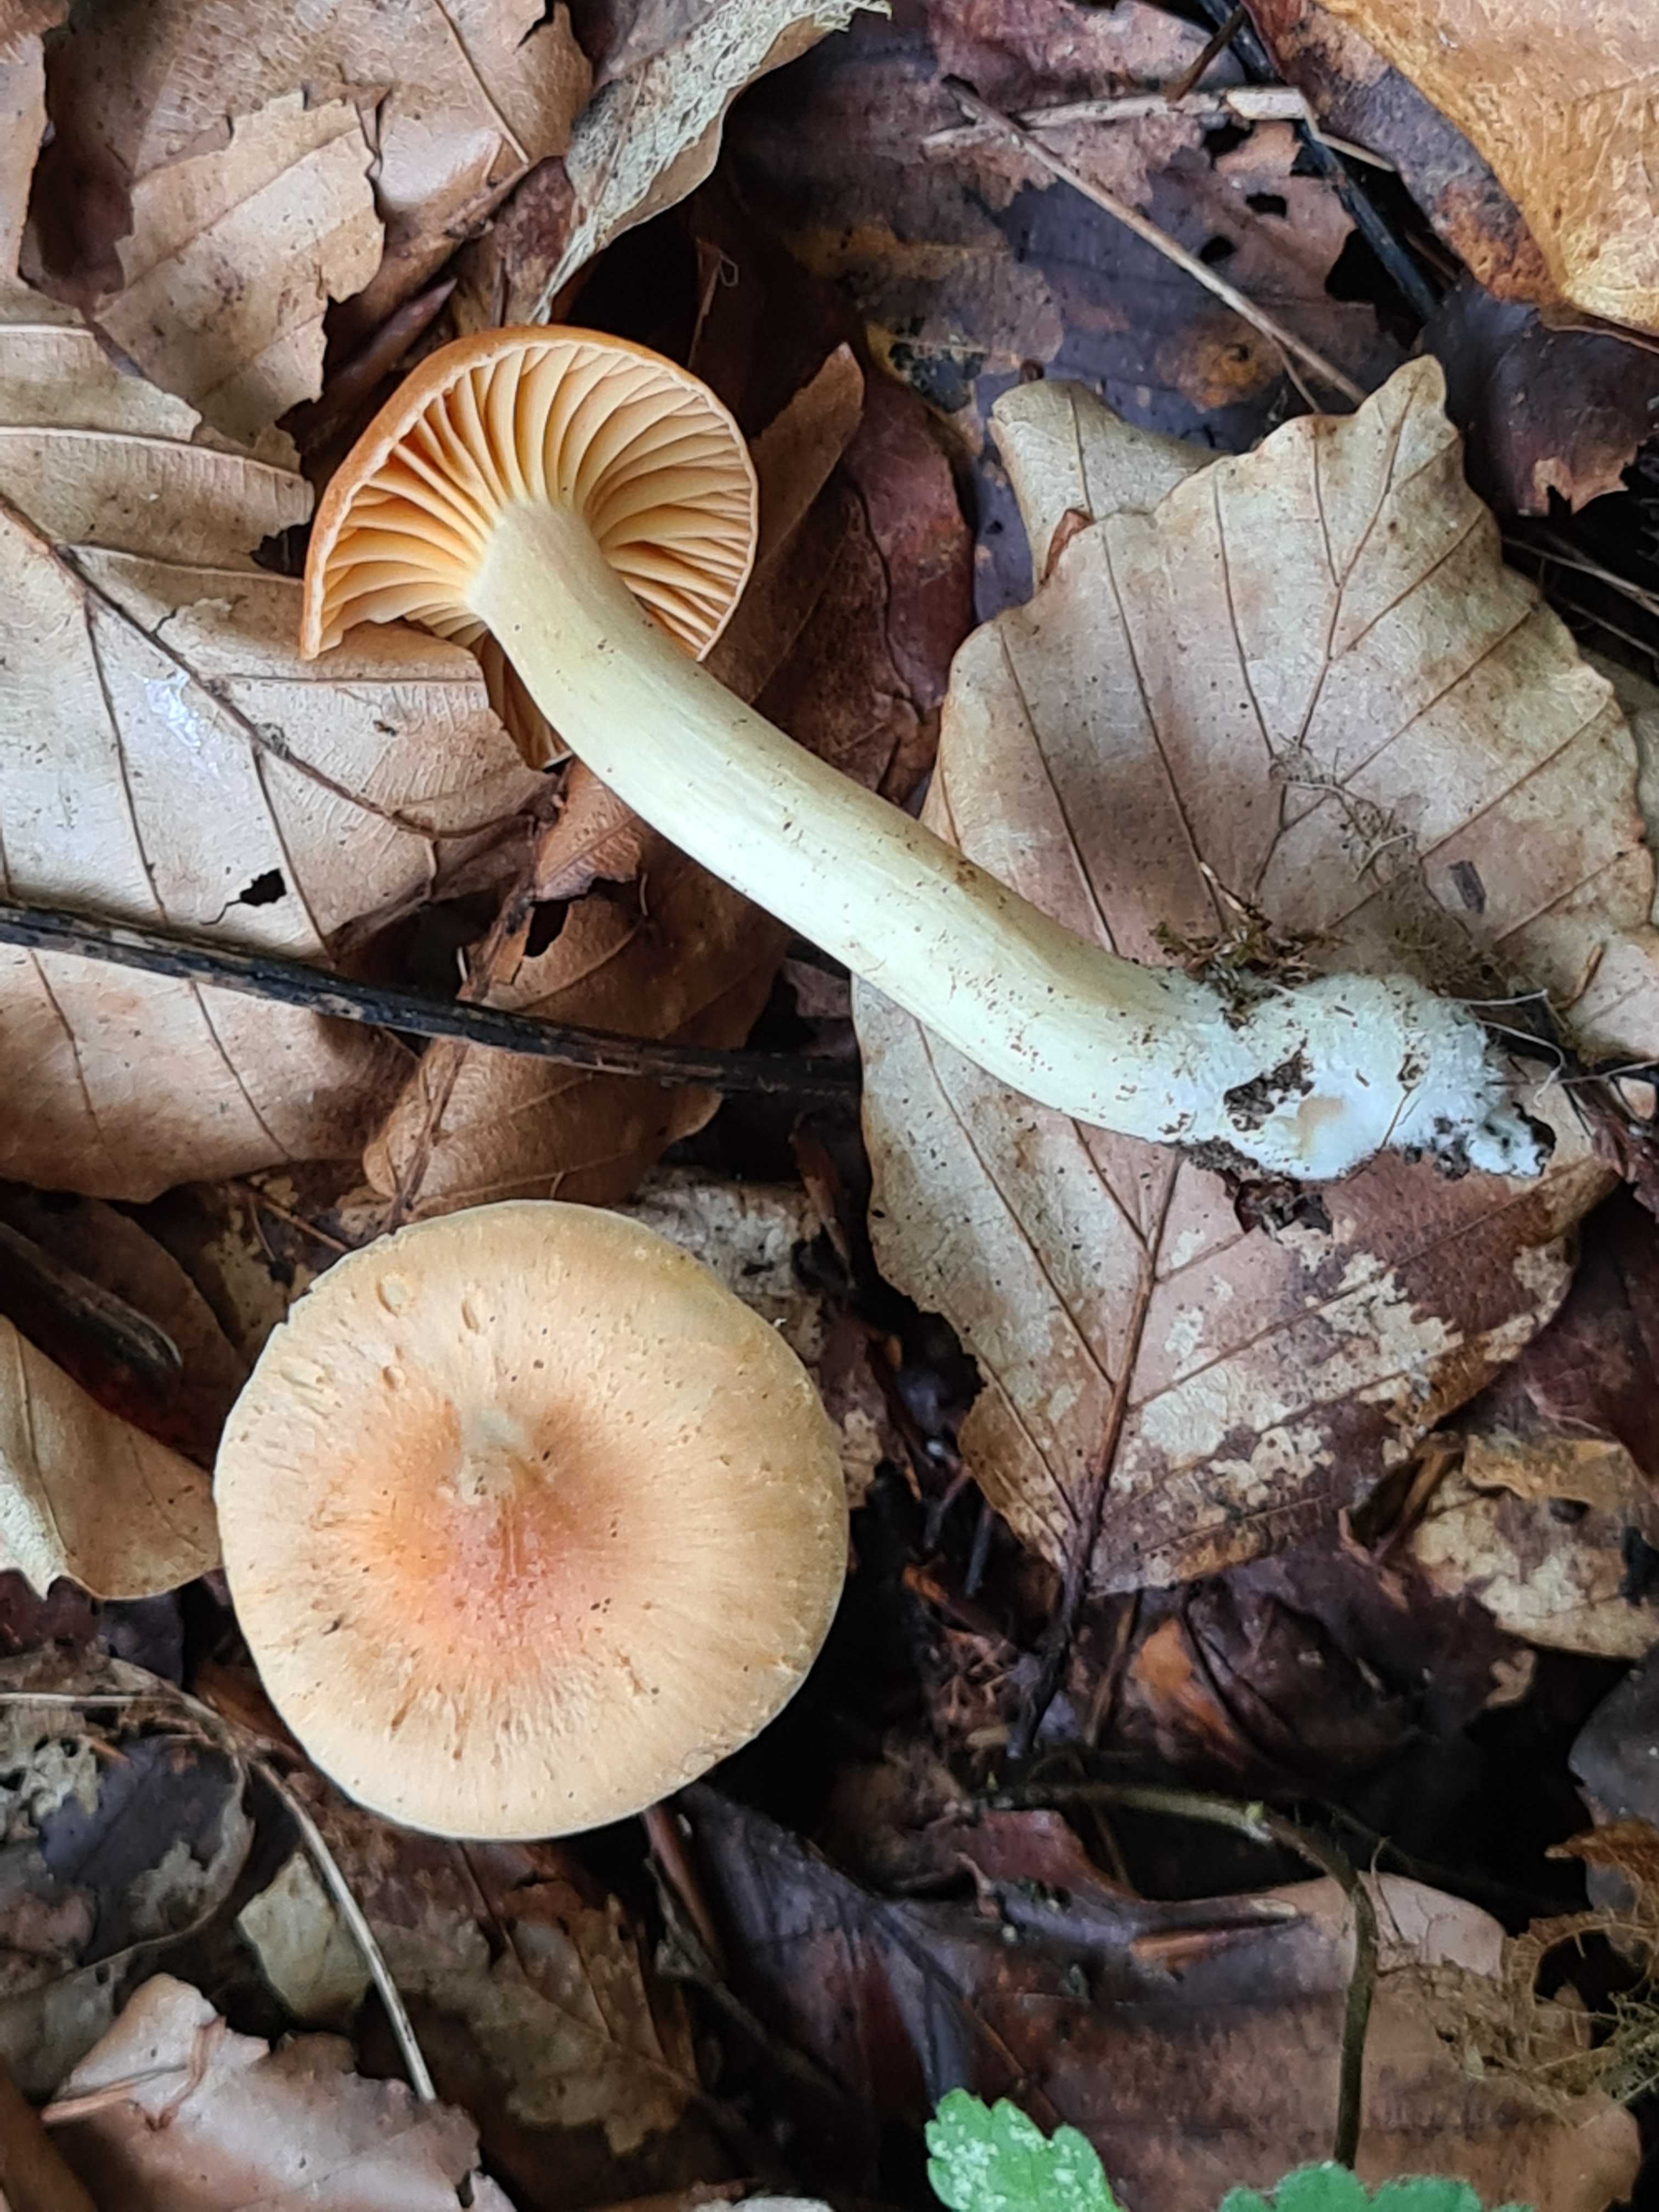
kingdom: Fungi
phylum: Basidiomycota
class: Agaricomycetes
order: Agaricales
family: Hygrophoraceae
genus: Cuphophyllus
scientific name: Cuphophyllus pratensis
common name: eng-vokshat
